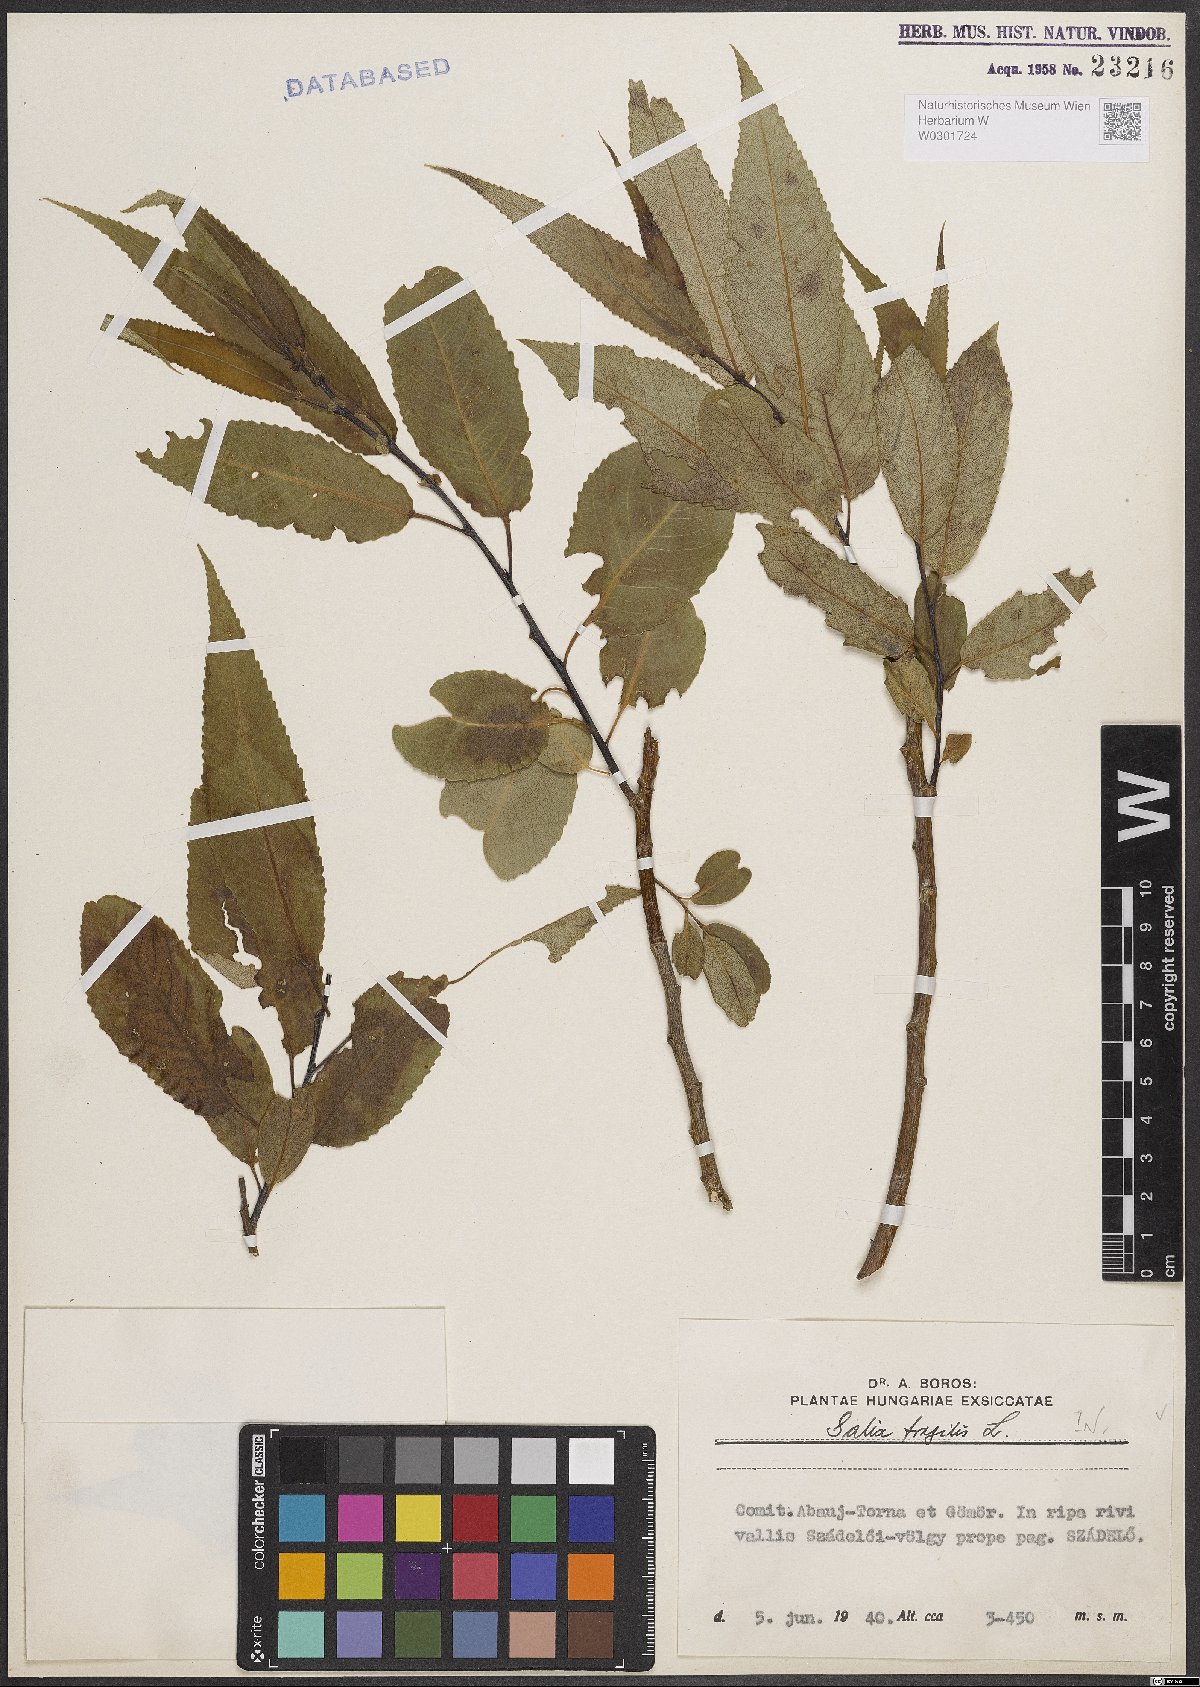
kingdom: Plantae
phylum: Tracheophyta
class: Magnoliopsida
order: Malpighiales
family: Salicaceae
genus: Salix
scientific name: Salix fragilis
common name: Crack willow
